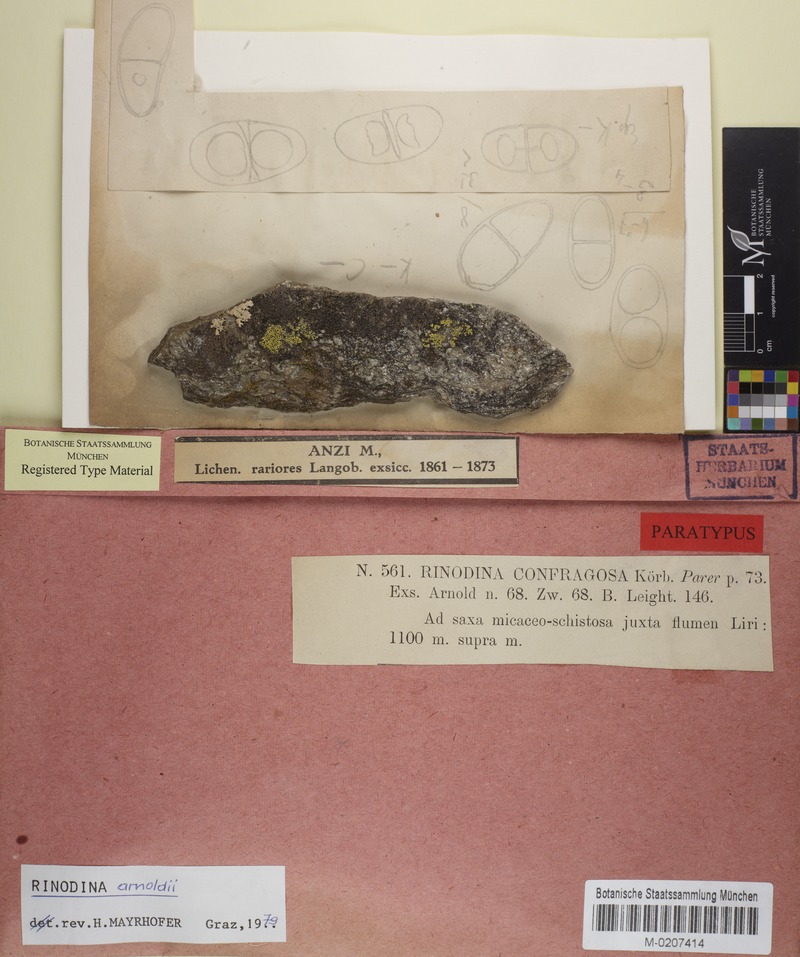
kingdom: Fungi
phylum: Ascomycota
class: Lecanoromycetes
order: Caliciales
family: Physciaceae
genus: Rinodina
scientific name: Rinodina arnoldii
